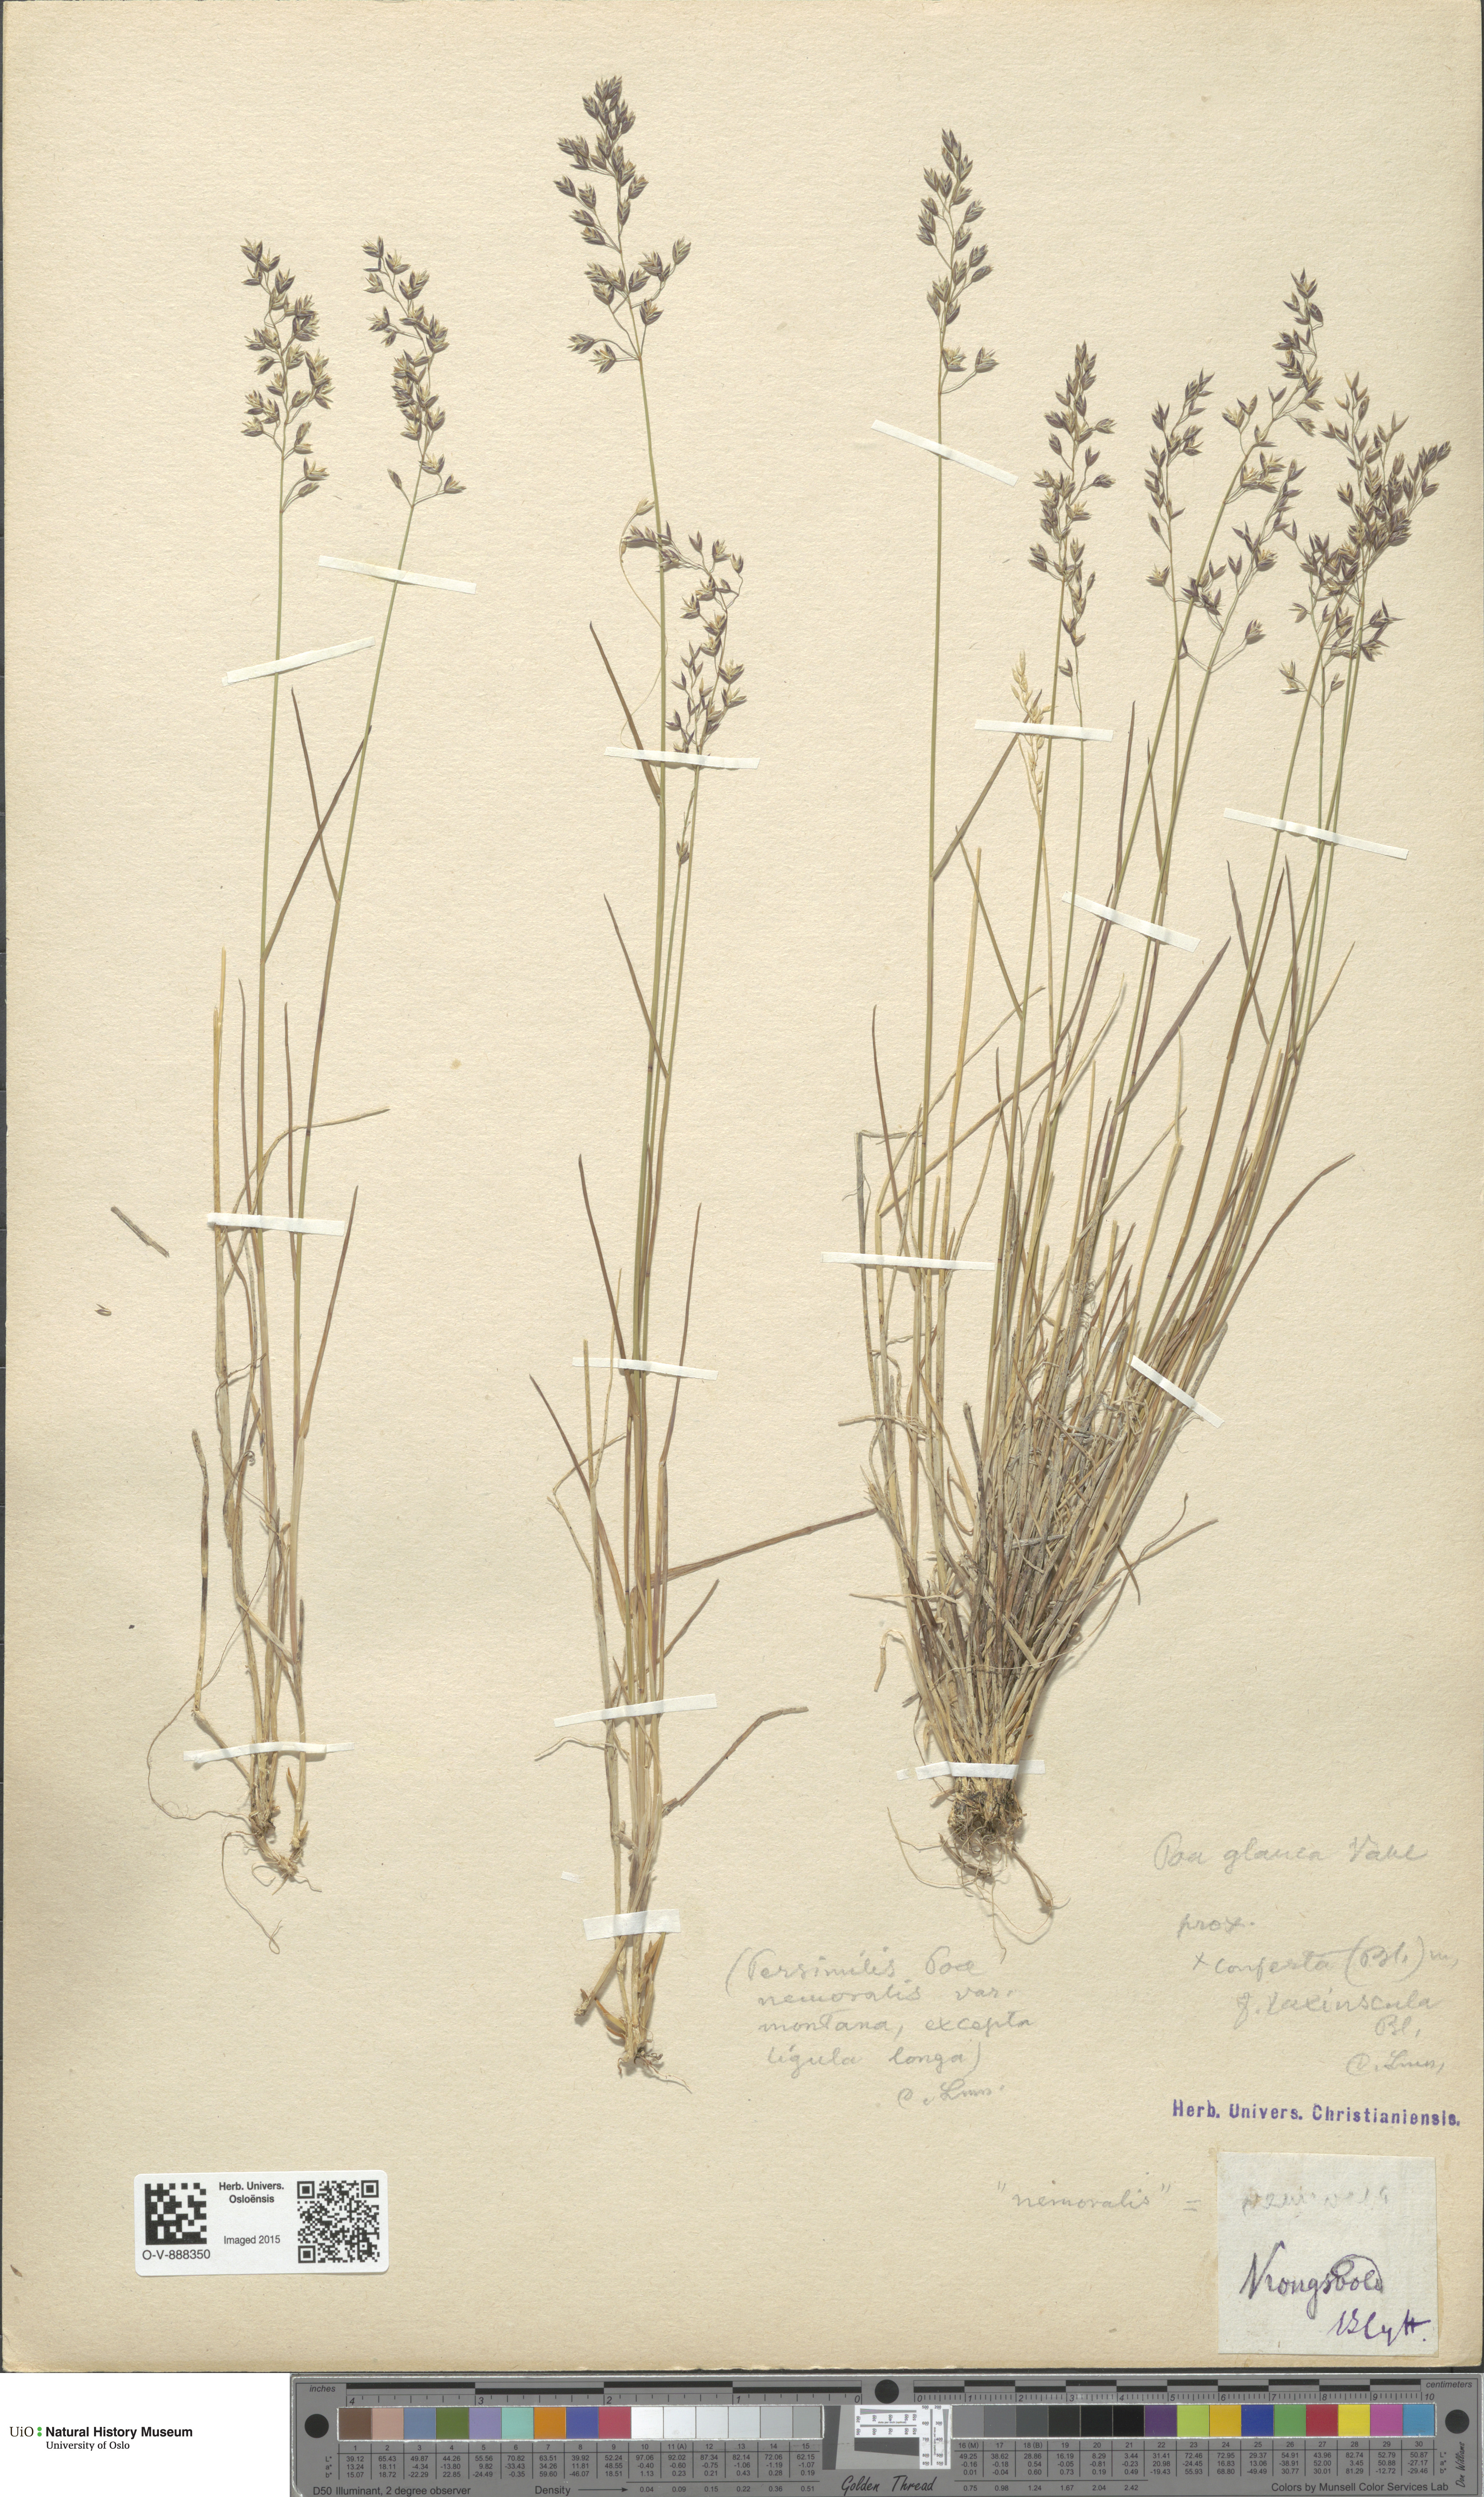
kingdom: Plantae
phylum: Tracheophyta
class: Liliopsida
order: Poales
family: Poaceae
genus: Poa
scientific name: Poa glauca
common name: Glaucous bluegrass
